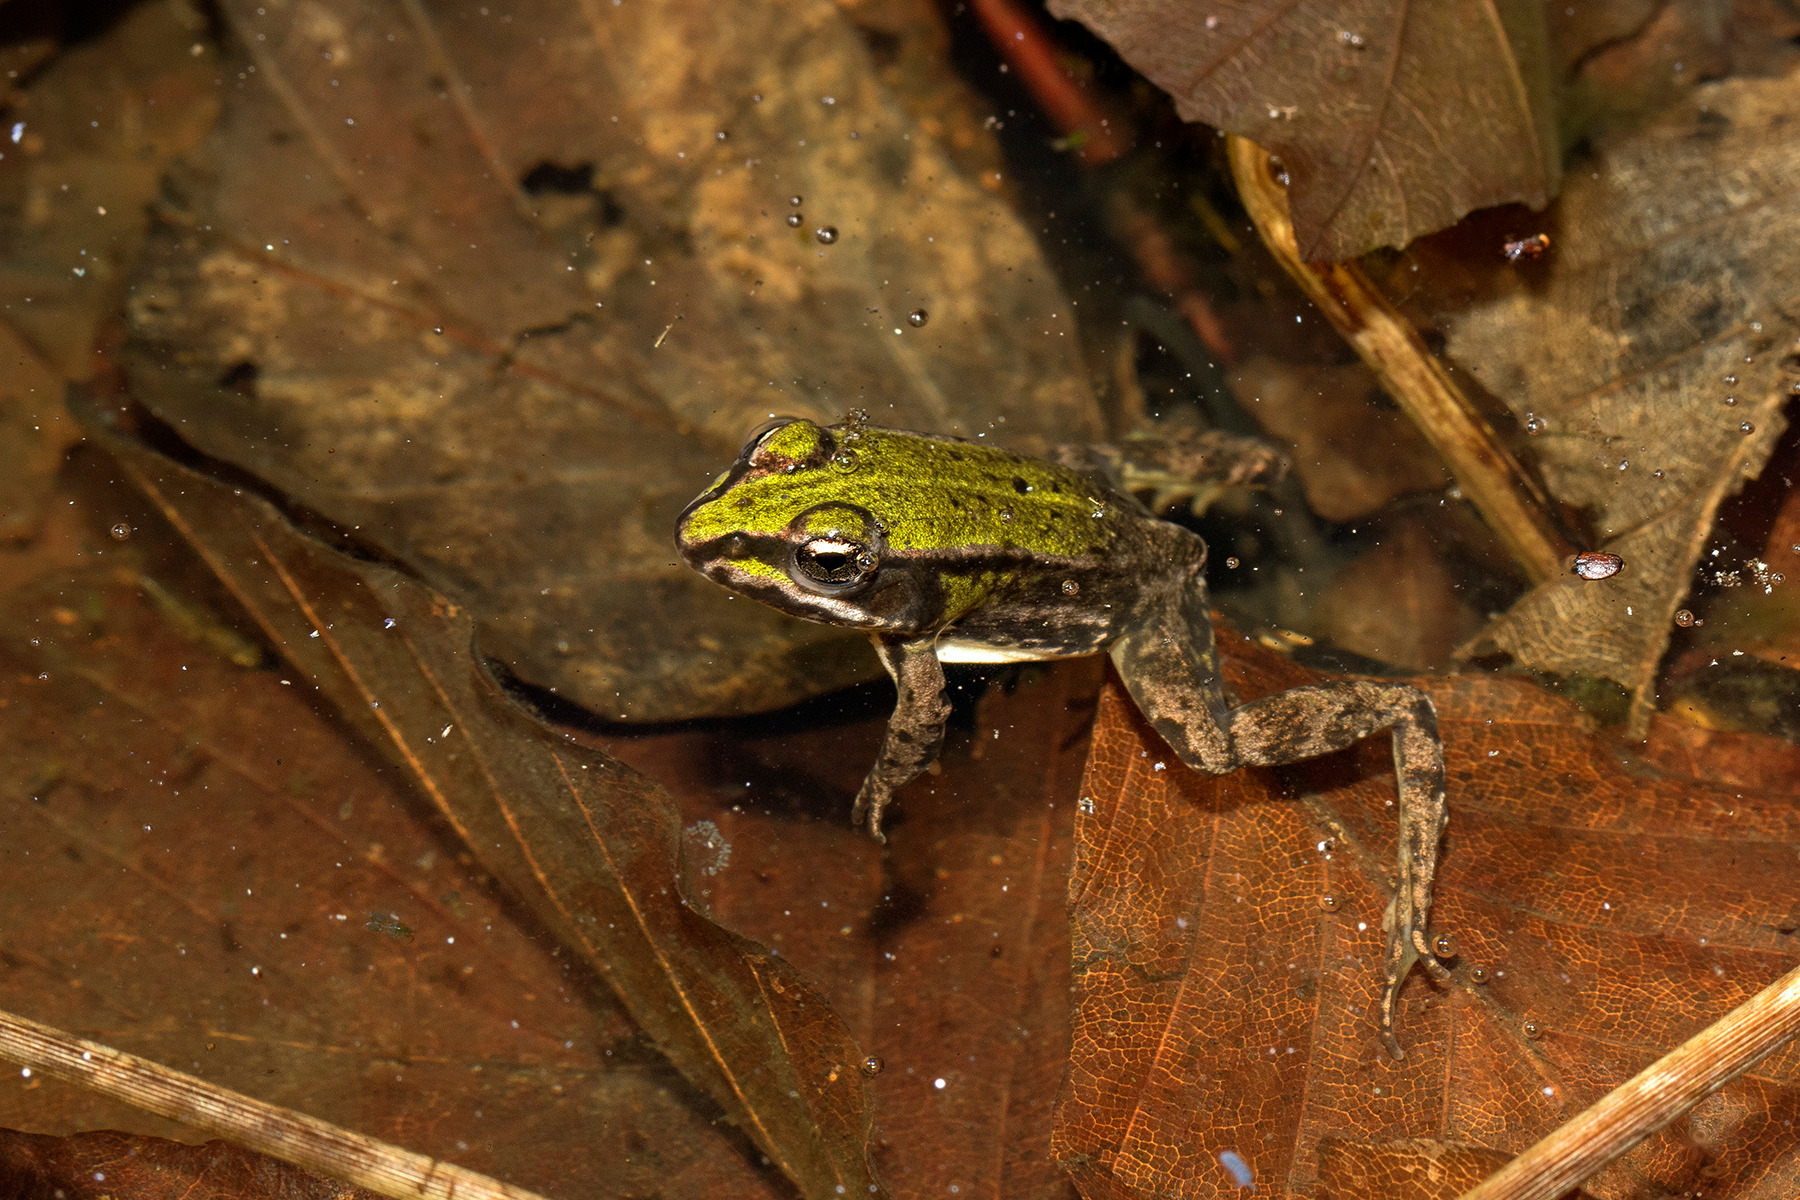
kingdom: Animalia
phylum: Chordata
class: Amphibia
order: Anura
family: Ranidae
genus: Pelophylax
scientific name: Pelophylax lessonae
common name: Grøn frø
